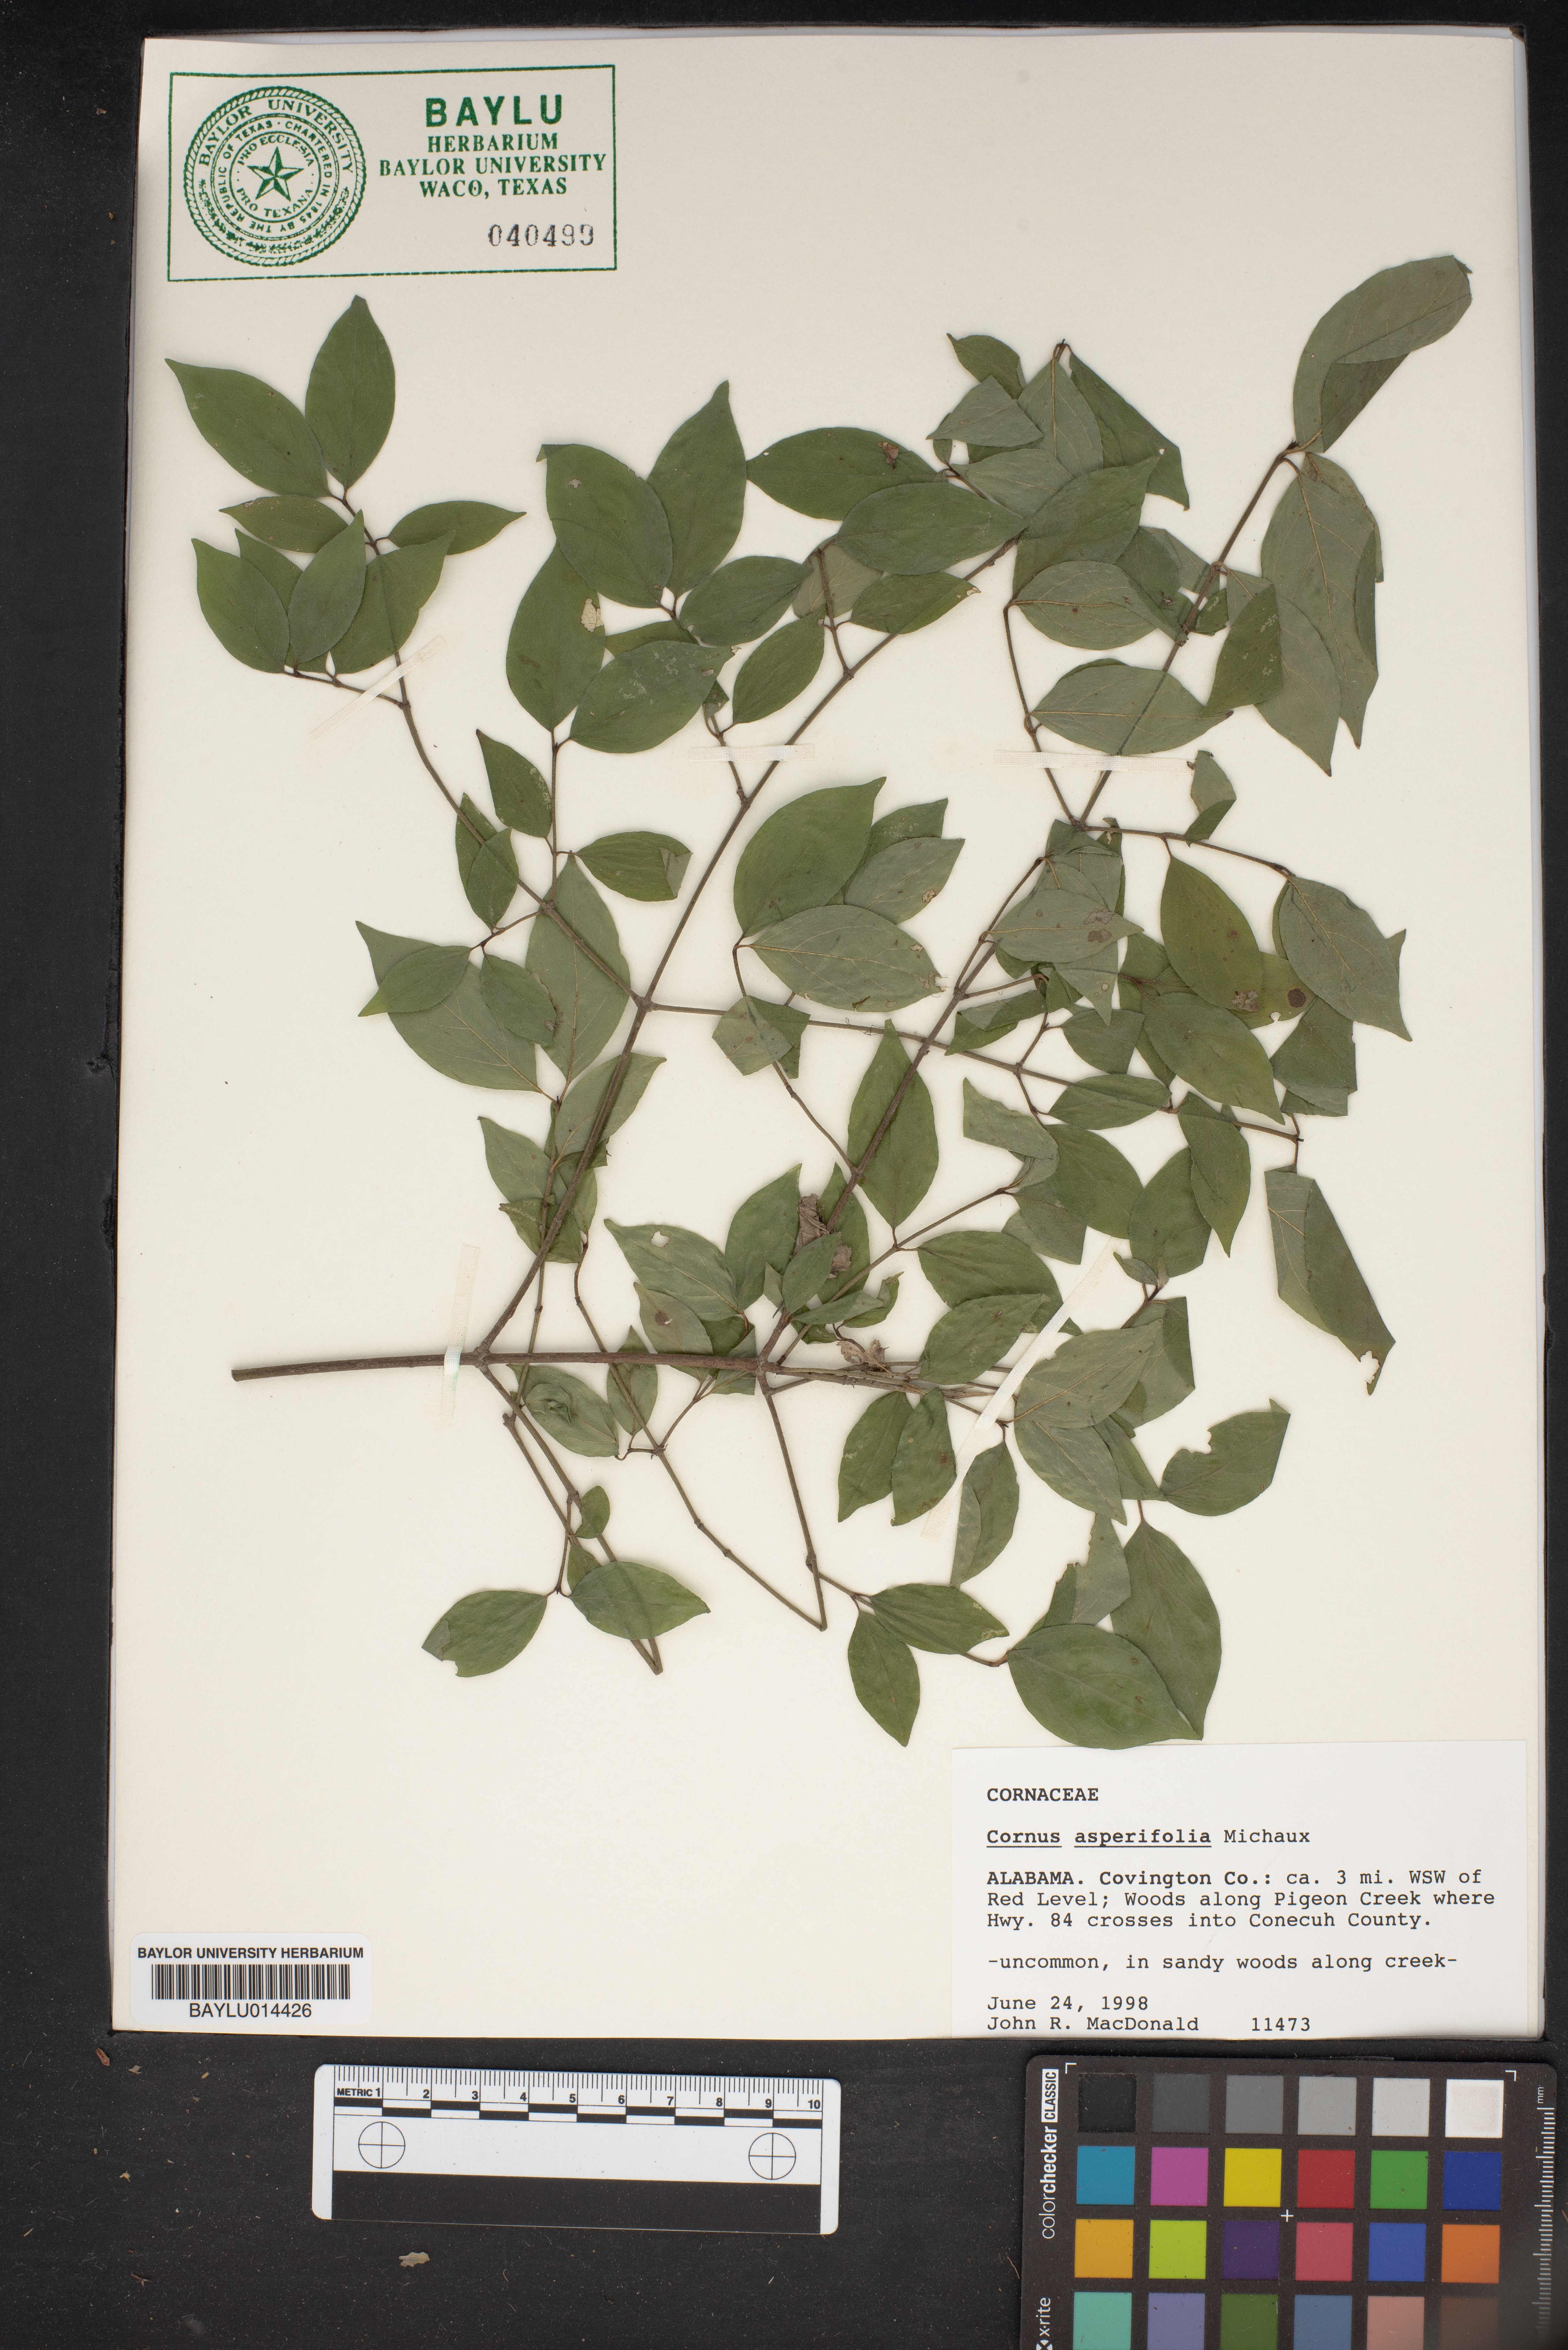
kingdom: Plantae
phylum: Tracheophyta
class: Magnoliopsida
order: Cornales
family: Cornaceae
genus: Cornus
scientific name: Cornus asperifolia
